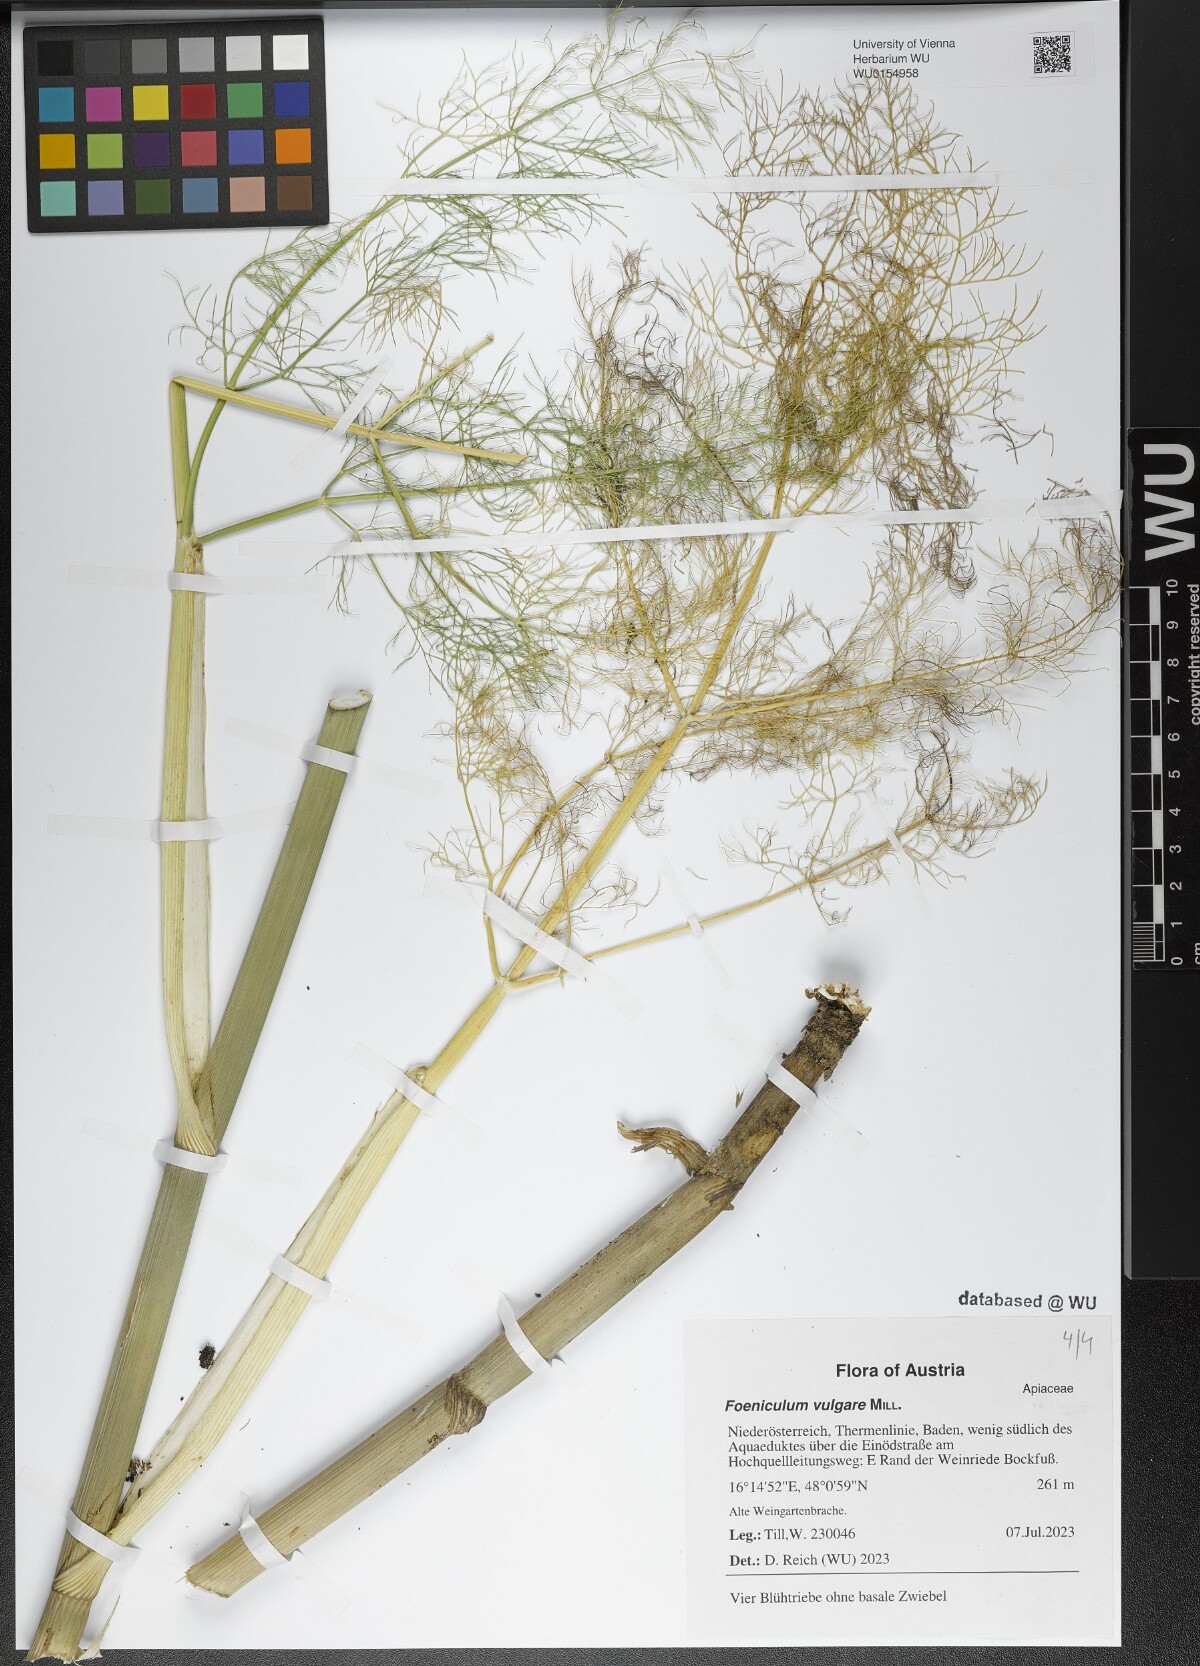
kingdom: Plantae
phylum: Tracheophyta
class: Magnoliopsida
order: Apiales
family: Apiaceae
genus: Foeniculum
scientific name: Foeniculum vulgare
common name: Fennel
